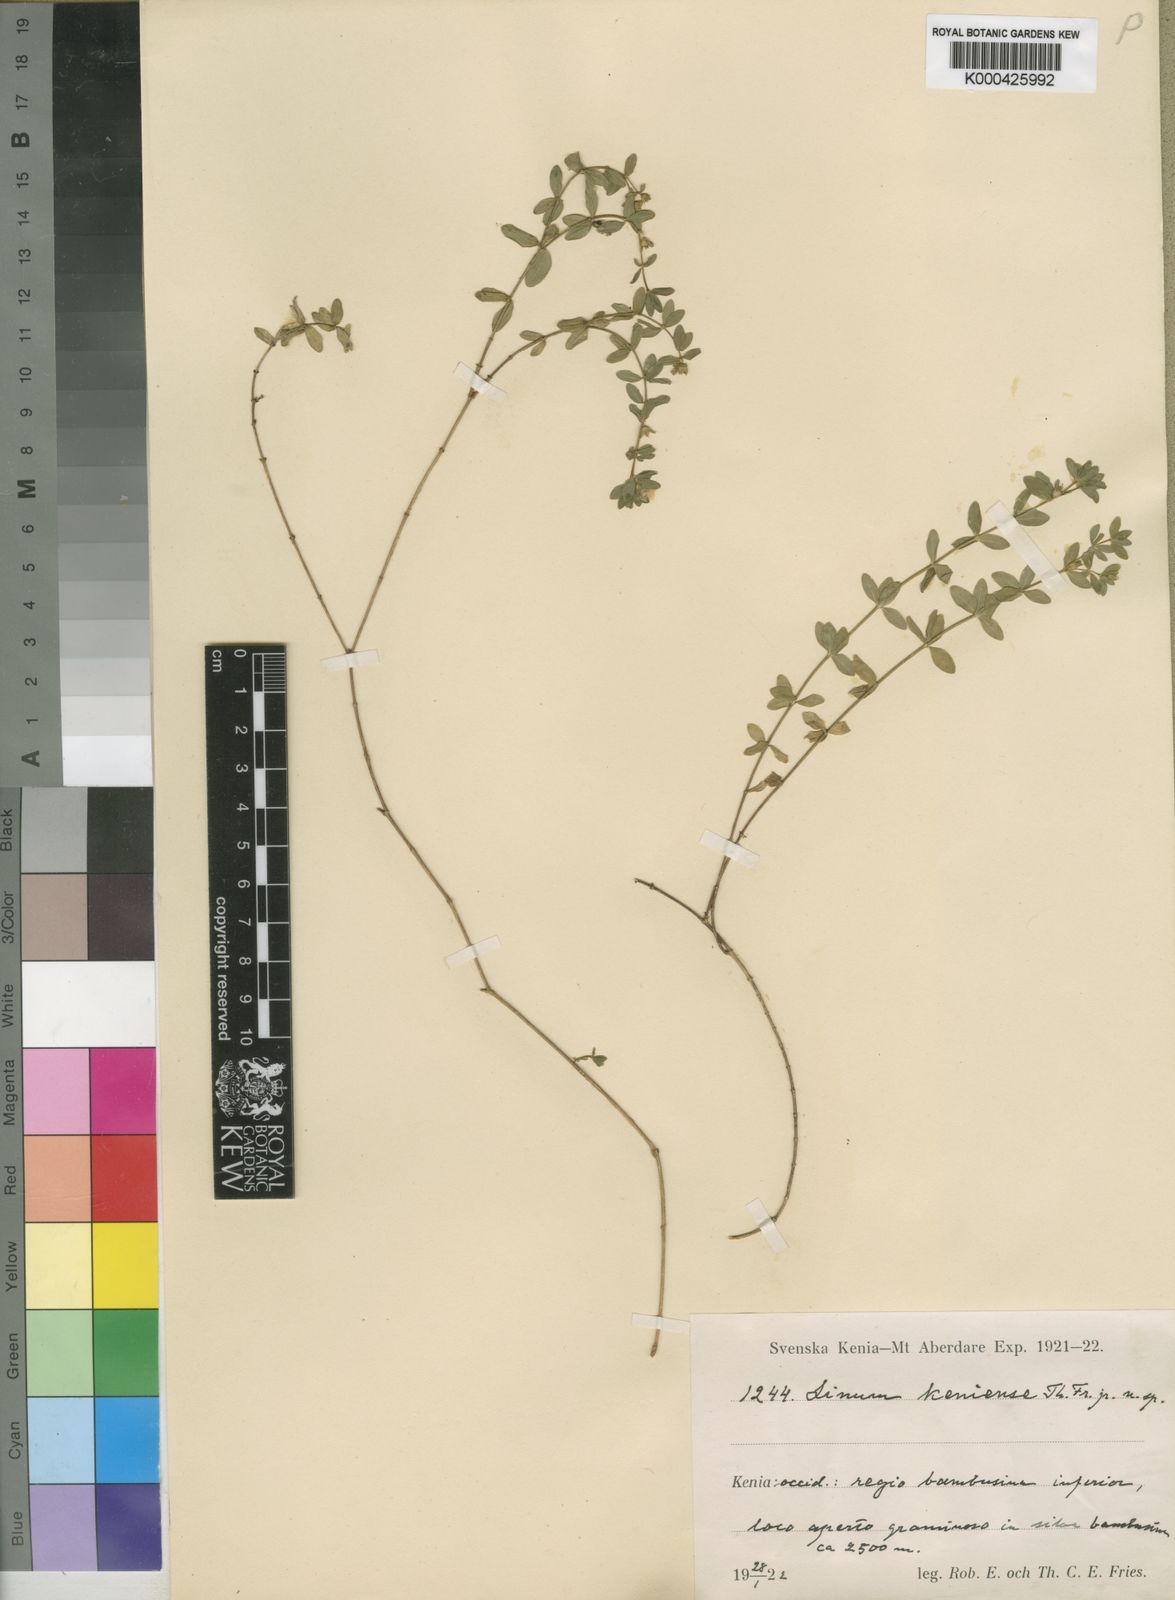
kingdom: Plantae
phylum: Tracheophyta
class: Magnoliopsida
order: Malpighiales
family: Linaceae
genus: Linum
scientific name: Linum keniense
